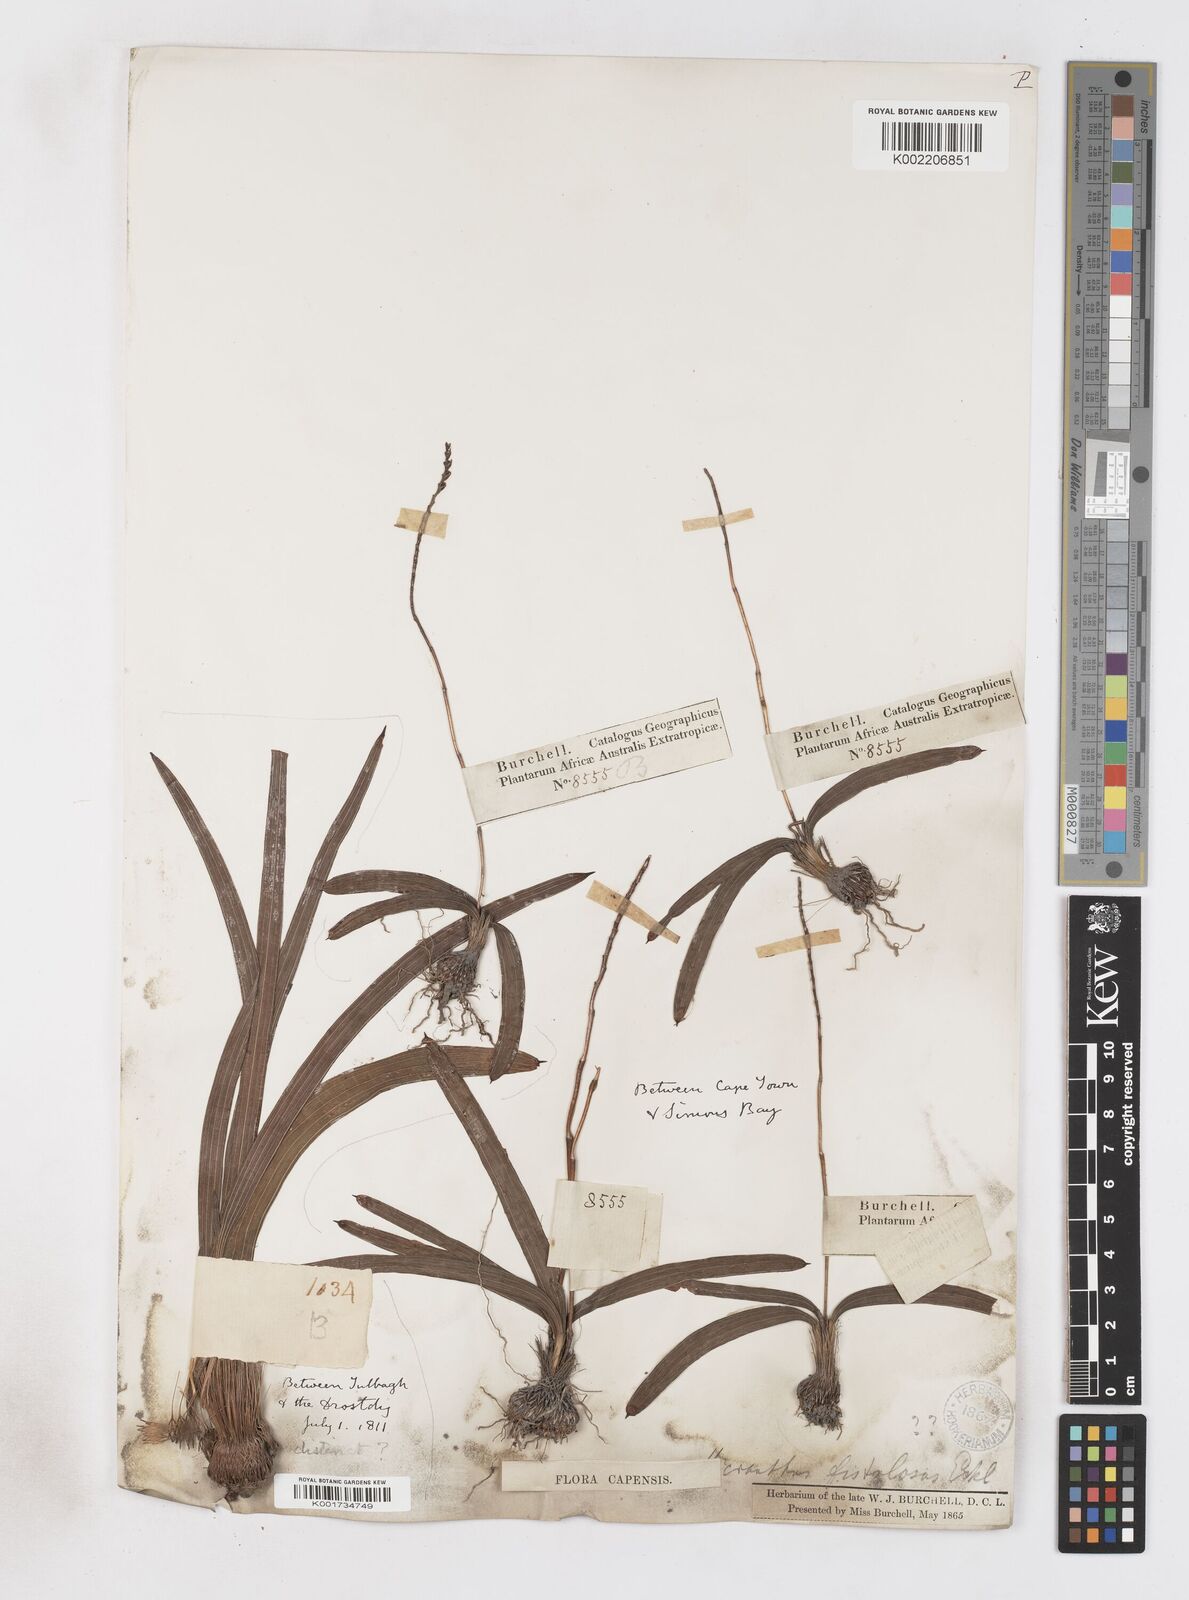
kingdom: Plantae
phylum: Tracheophyta
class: Liliopsida
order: Asparagales
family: Iridaceae
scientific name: Iridaceae
